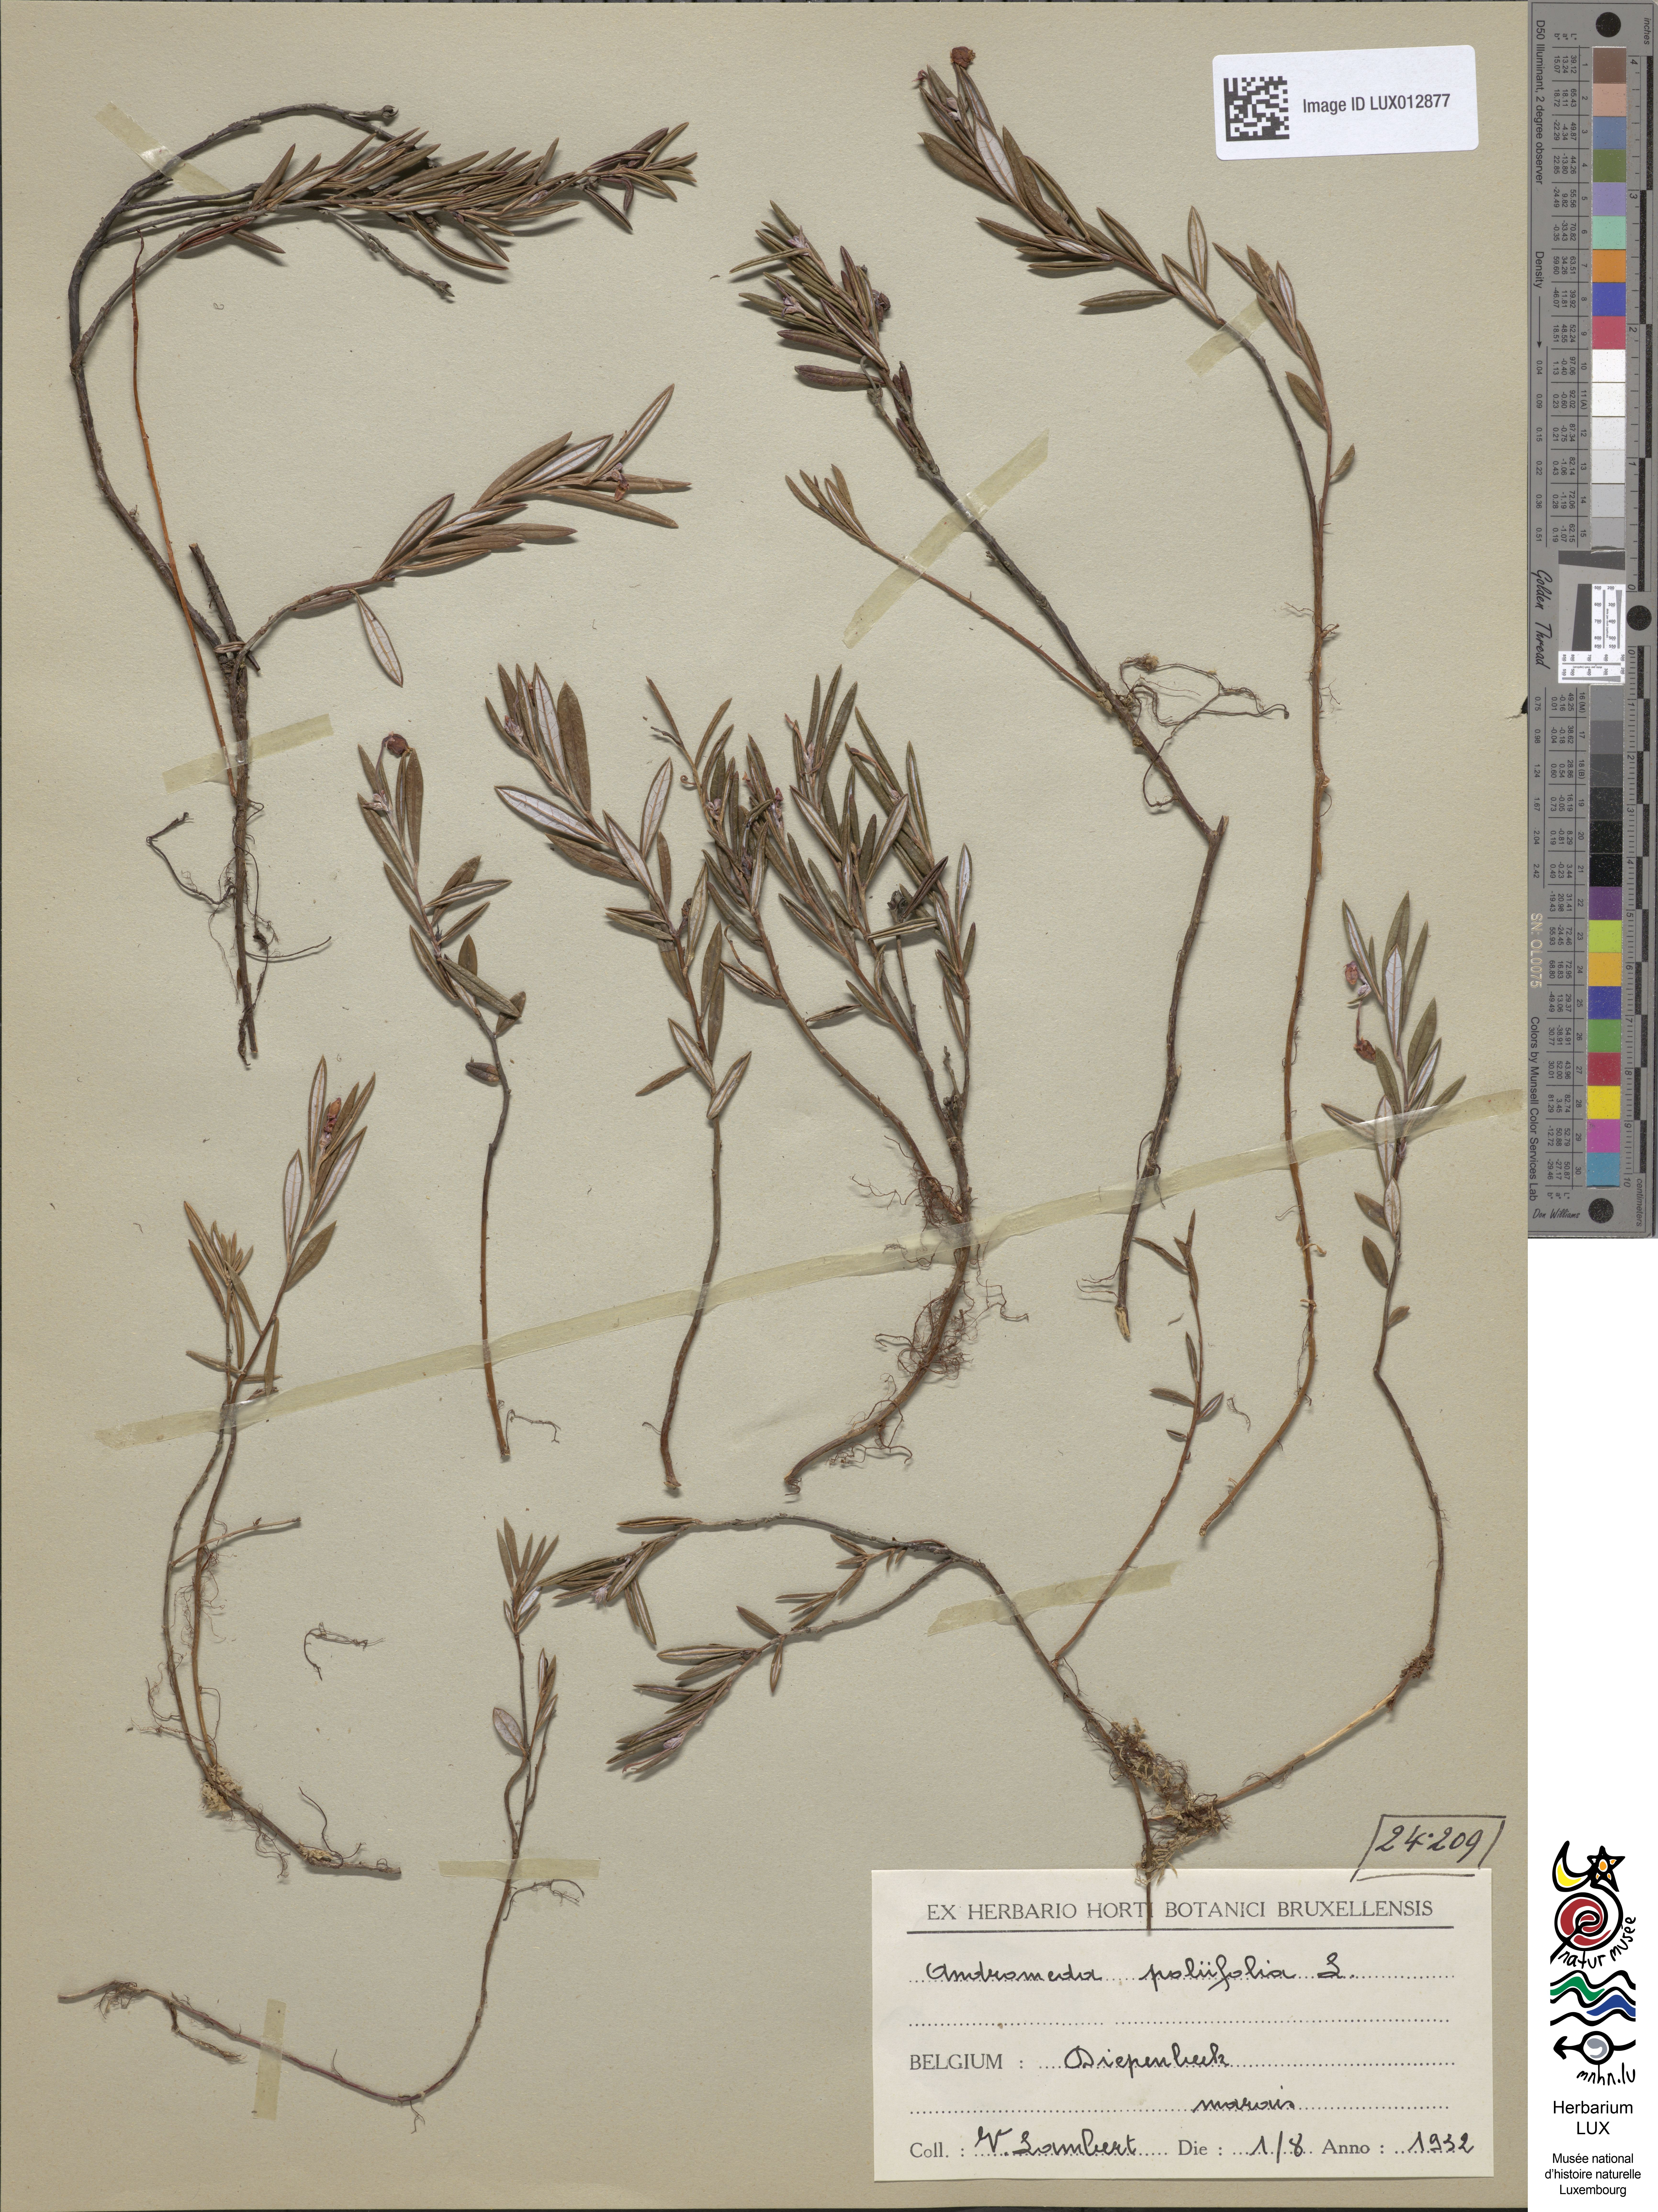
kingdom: Plantae
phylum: Tracheophyta
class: Magnoliopsida
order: Ericales
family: Ericaceae
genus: Andromeda
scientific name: Andromeda polifolia
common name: Bog-rosemary
